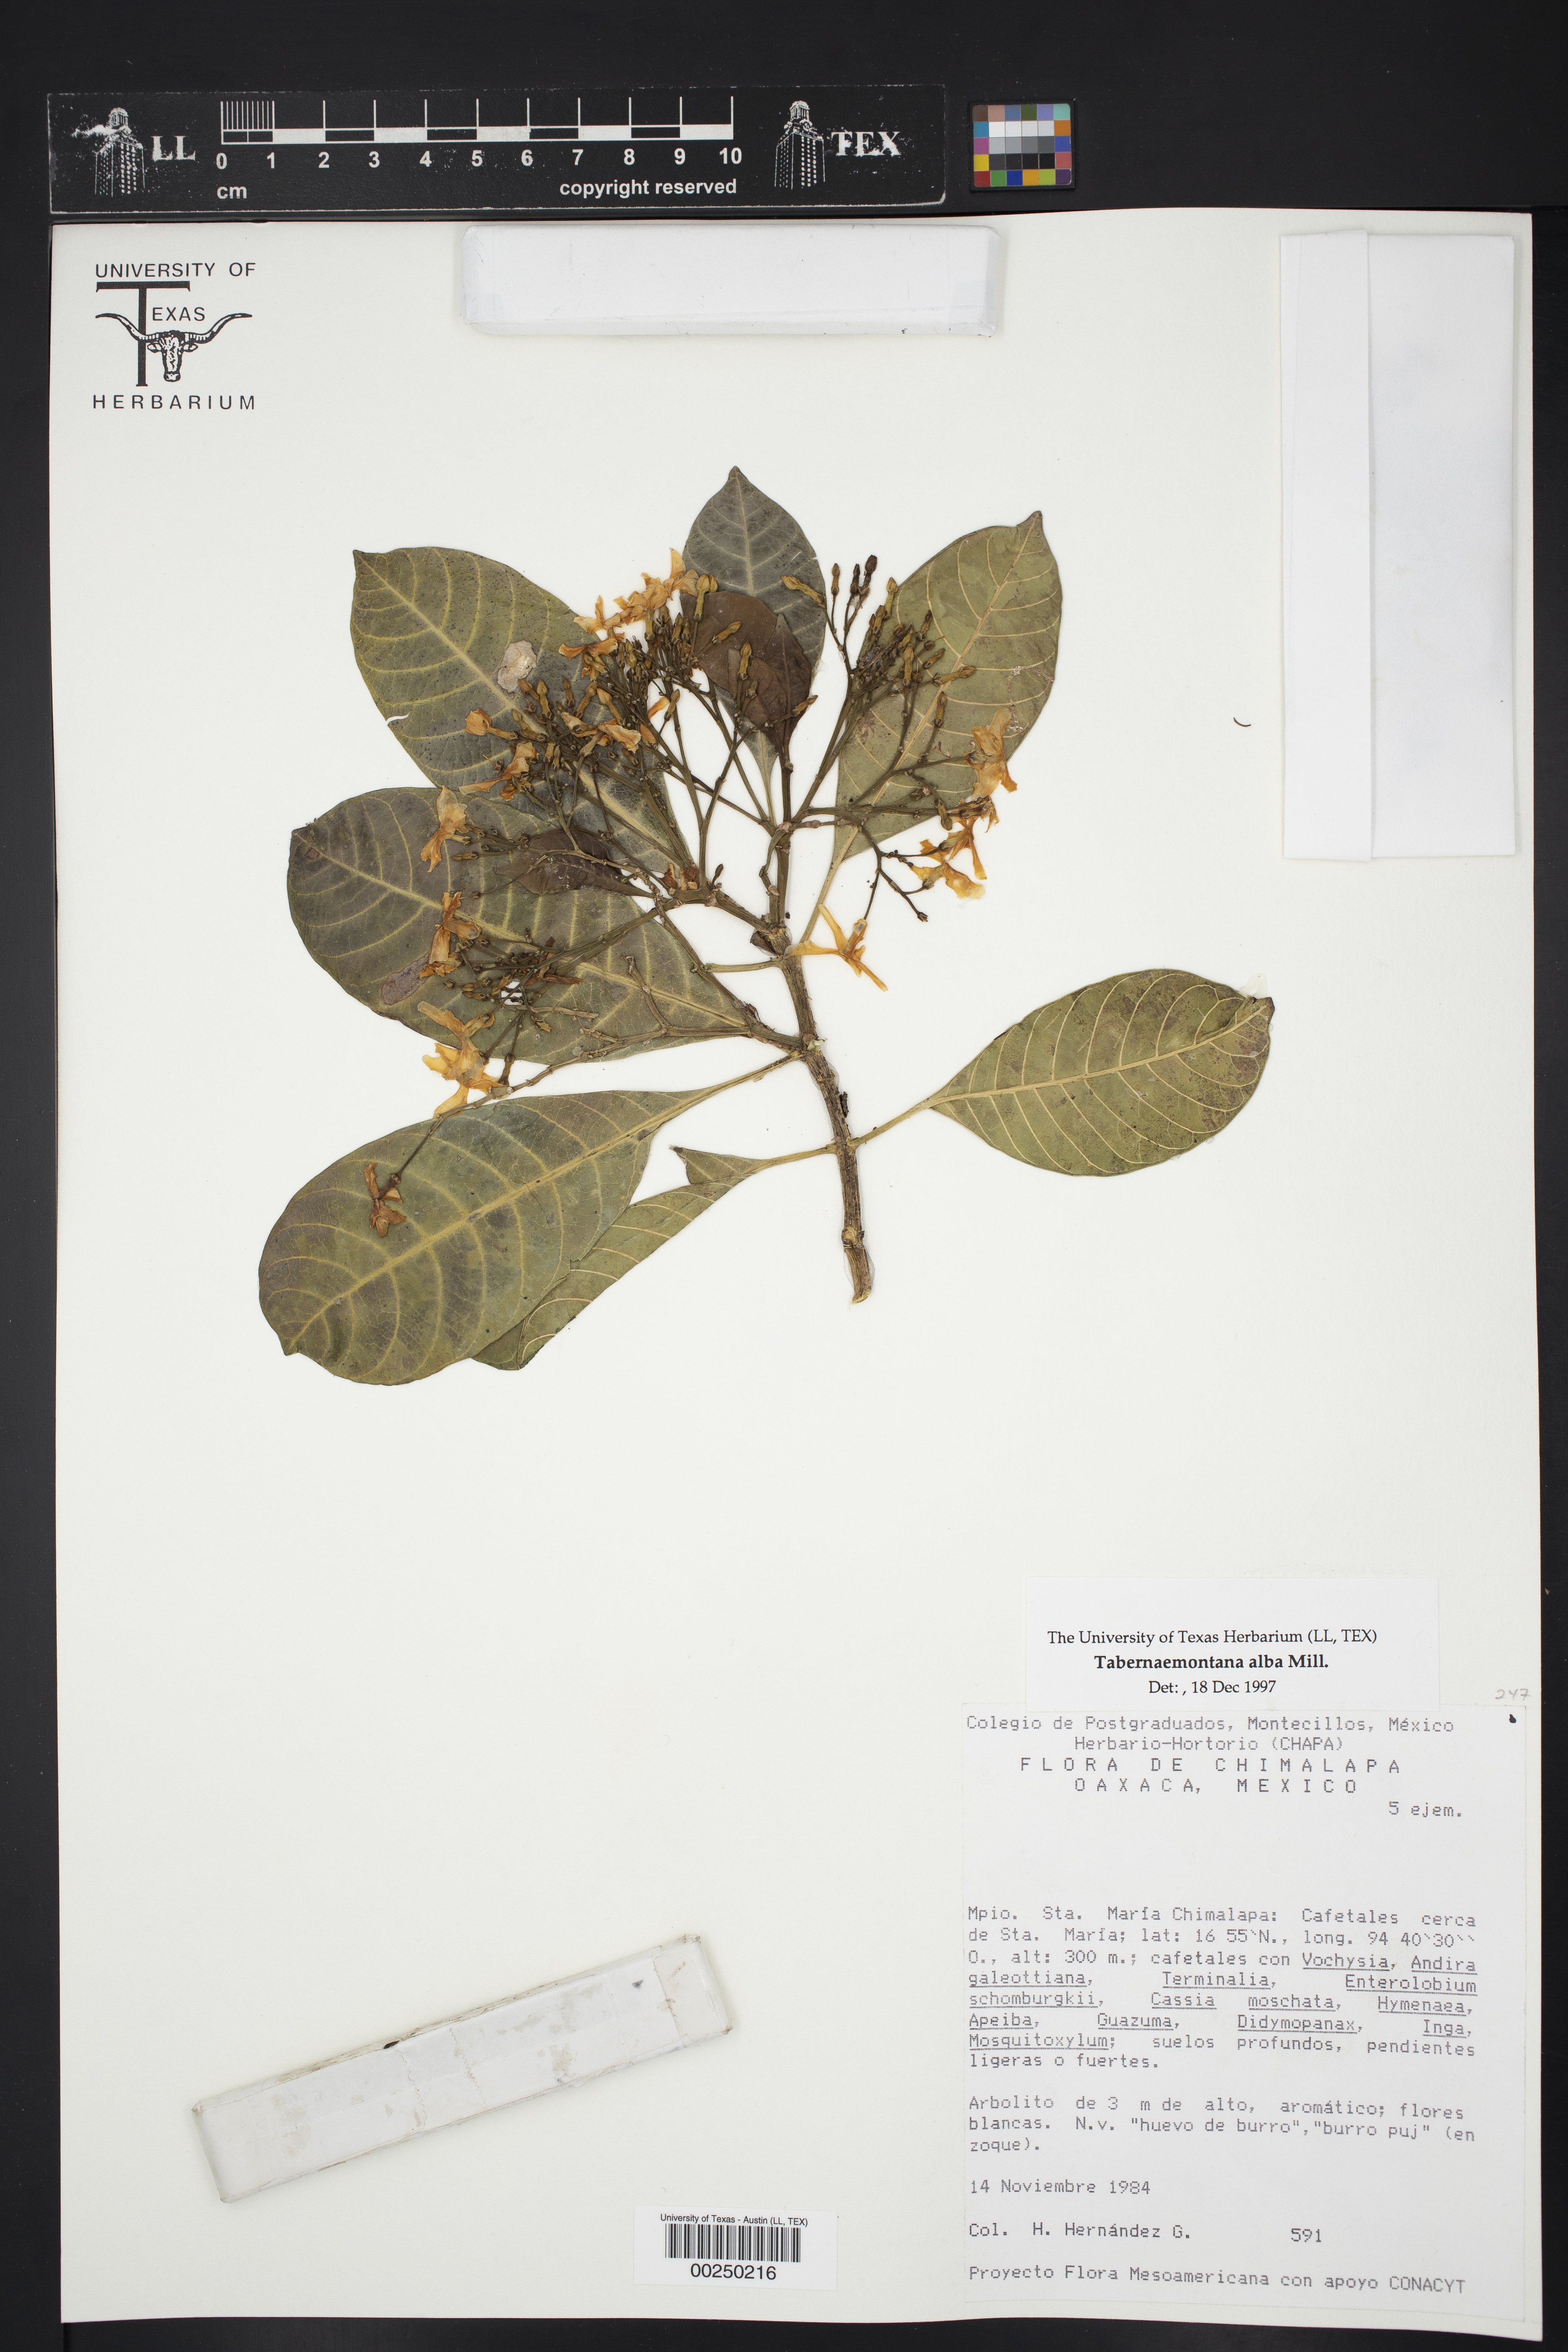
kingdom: Plantae
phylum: Tracheophyta
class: Magnoliopsida
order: Gentianales
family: Apocynaceae
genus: Tabernaemontana
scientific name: Tabernaemontana alba
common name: White milkwood
